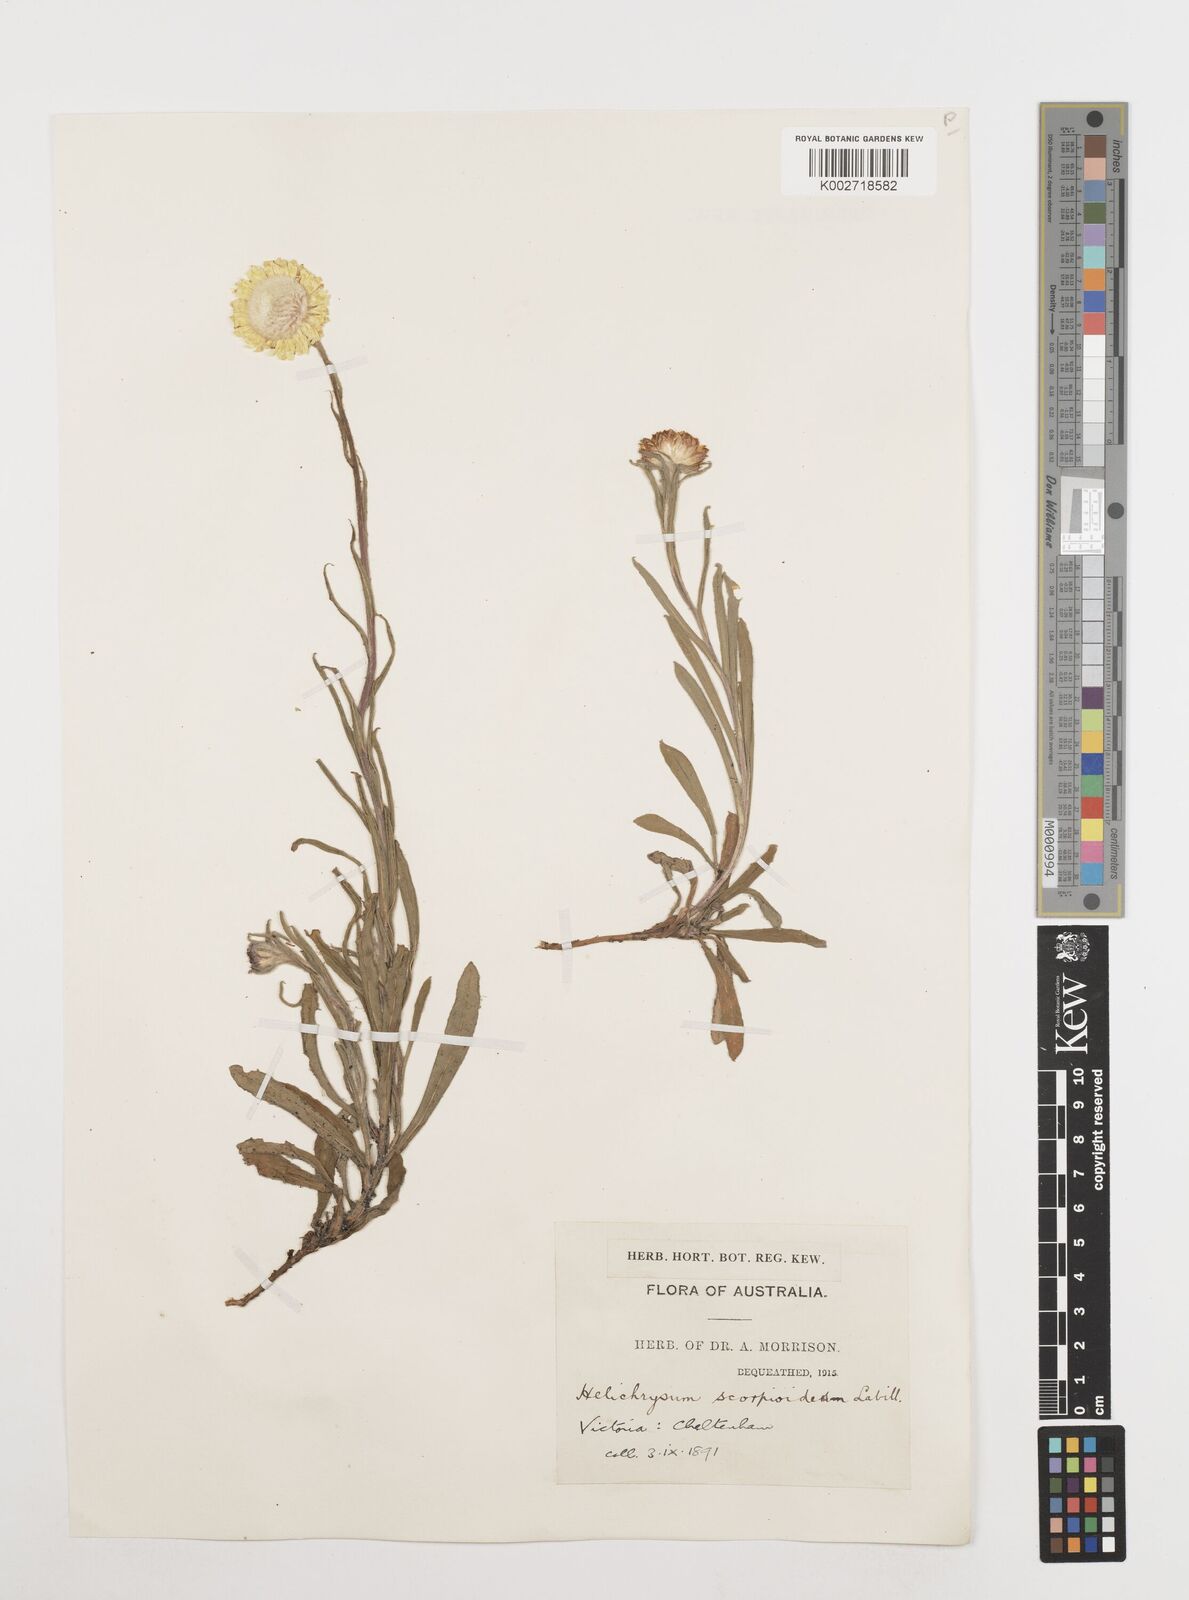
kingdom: Plantae
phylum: Tracheophyta
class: Magnoliopsida
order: Asterales
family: Asteraceae
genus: Coronidium
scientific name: Coronidium scorpioides
